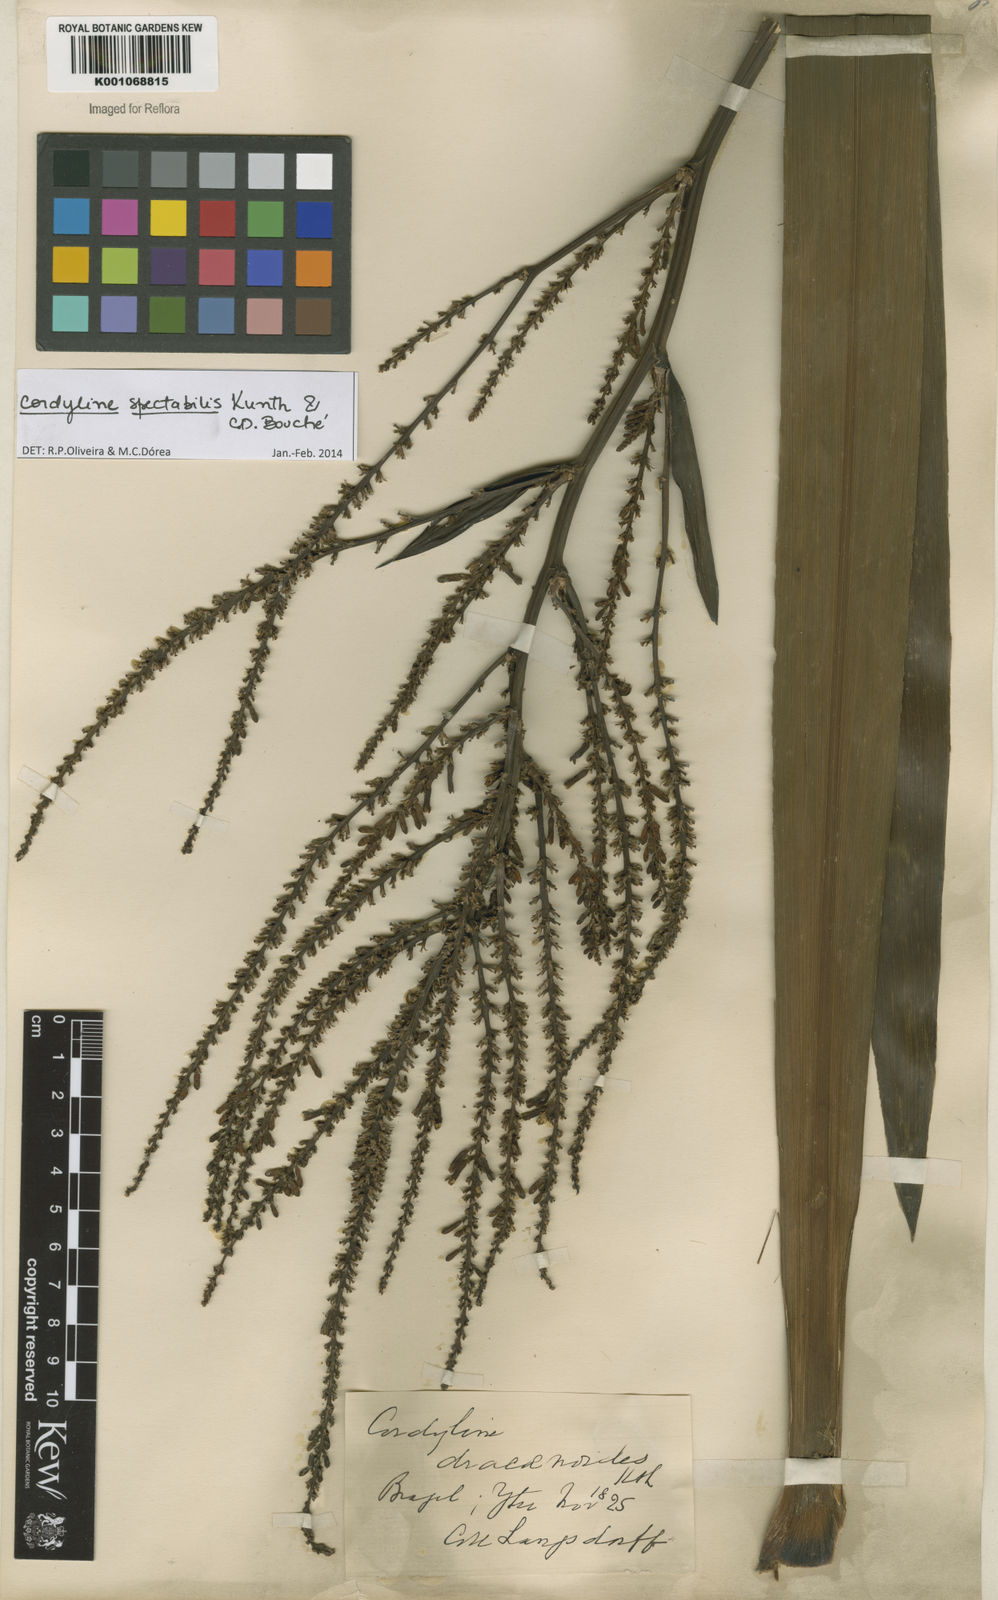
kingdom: Plantae
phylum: Tracheophyta
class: Liliopsida
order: Asparagales
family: Asparagaceae
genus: Cordyline
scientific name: Cordyline
